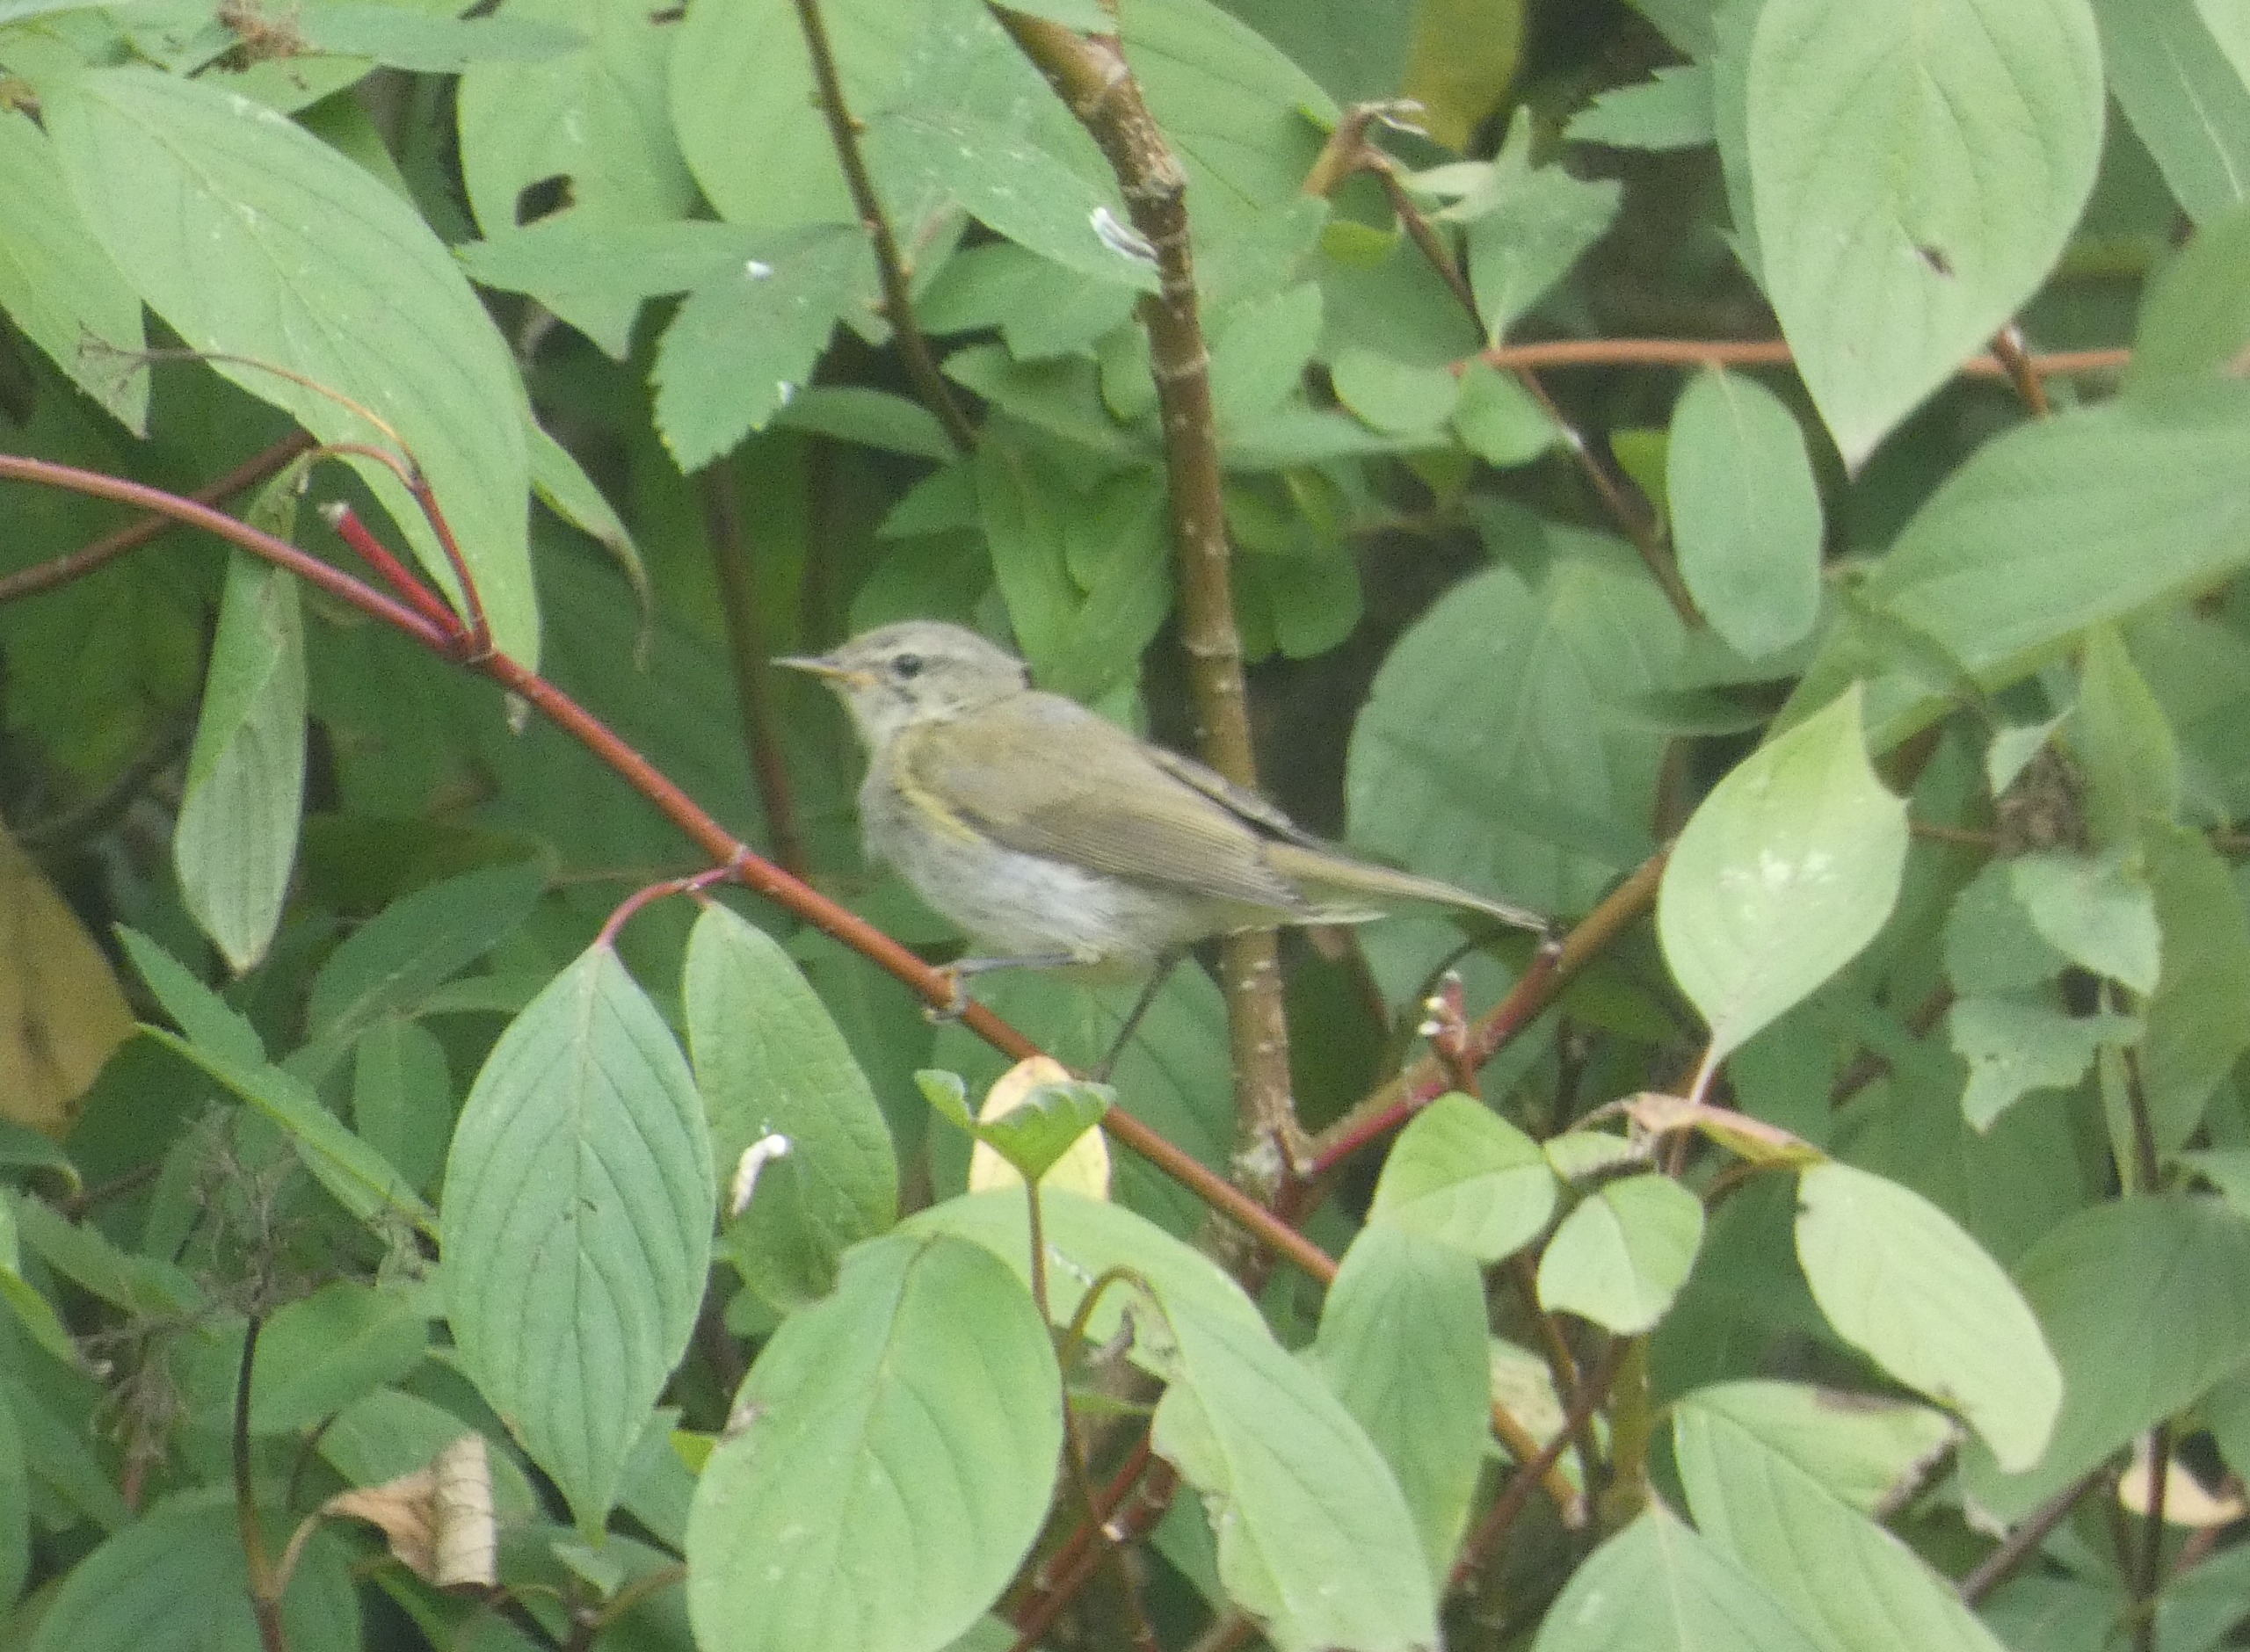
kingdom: Animalia
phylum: Chordata
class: Aves
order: Passeriformes
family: Phylloscopidae
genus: Phylloscopus
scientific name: Phylloscopus collybita
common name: Gransanger
